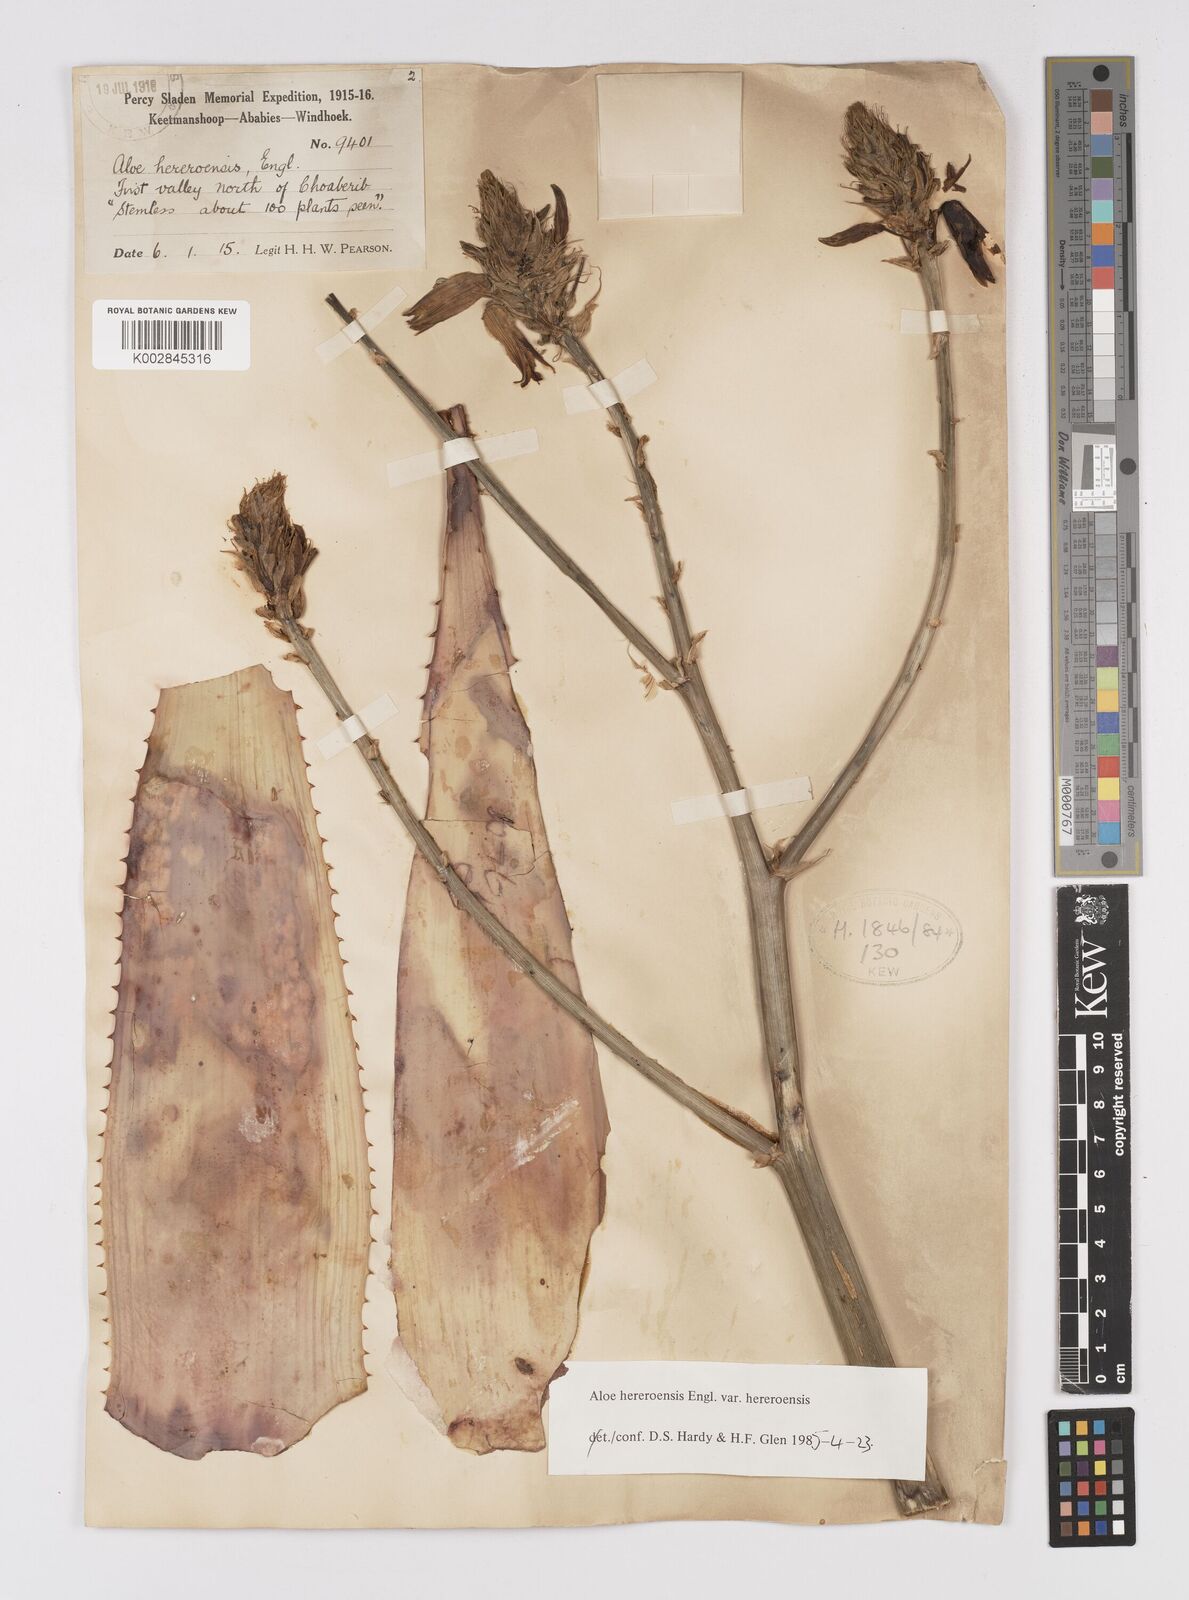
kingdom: Plantae
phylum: Tracheophyta
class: Liliopsida
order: Asparagales
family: Asphodelaceae
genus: Aloe
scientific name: Aloe hereroensis
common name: Herero aloe
